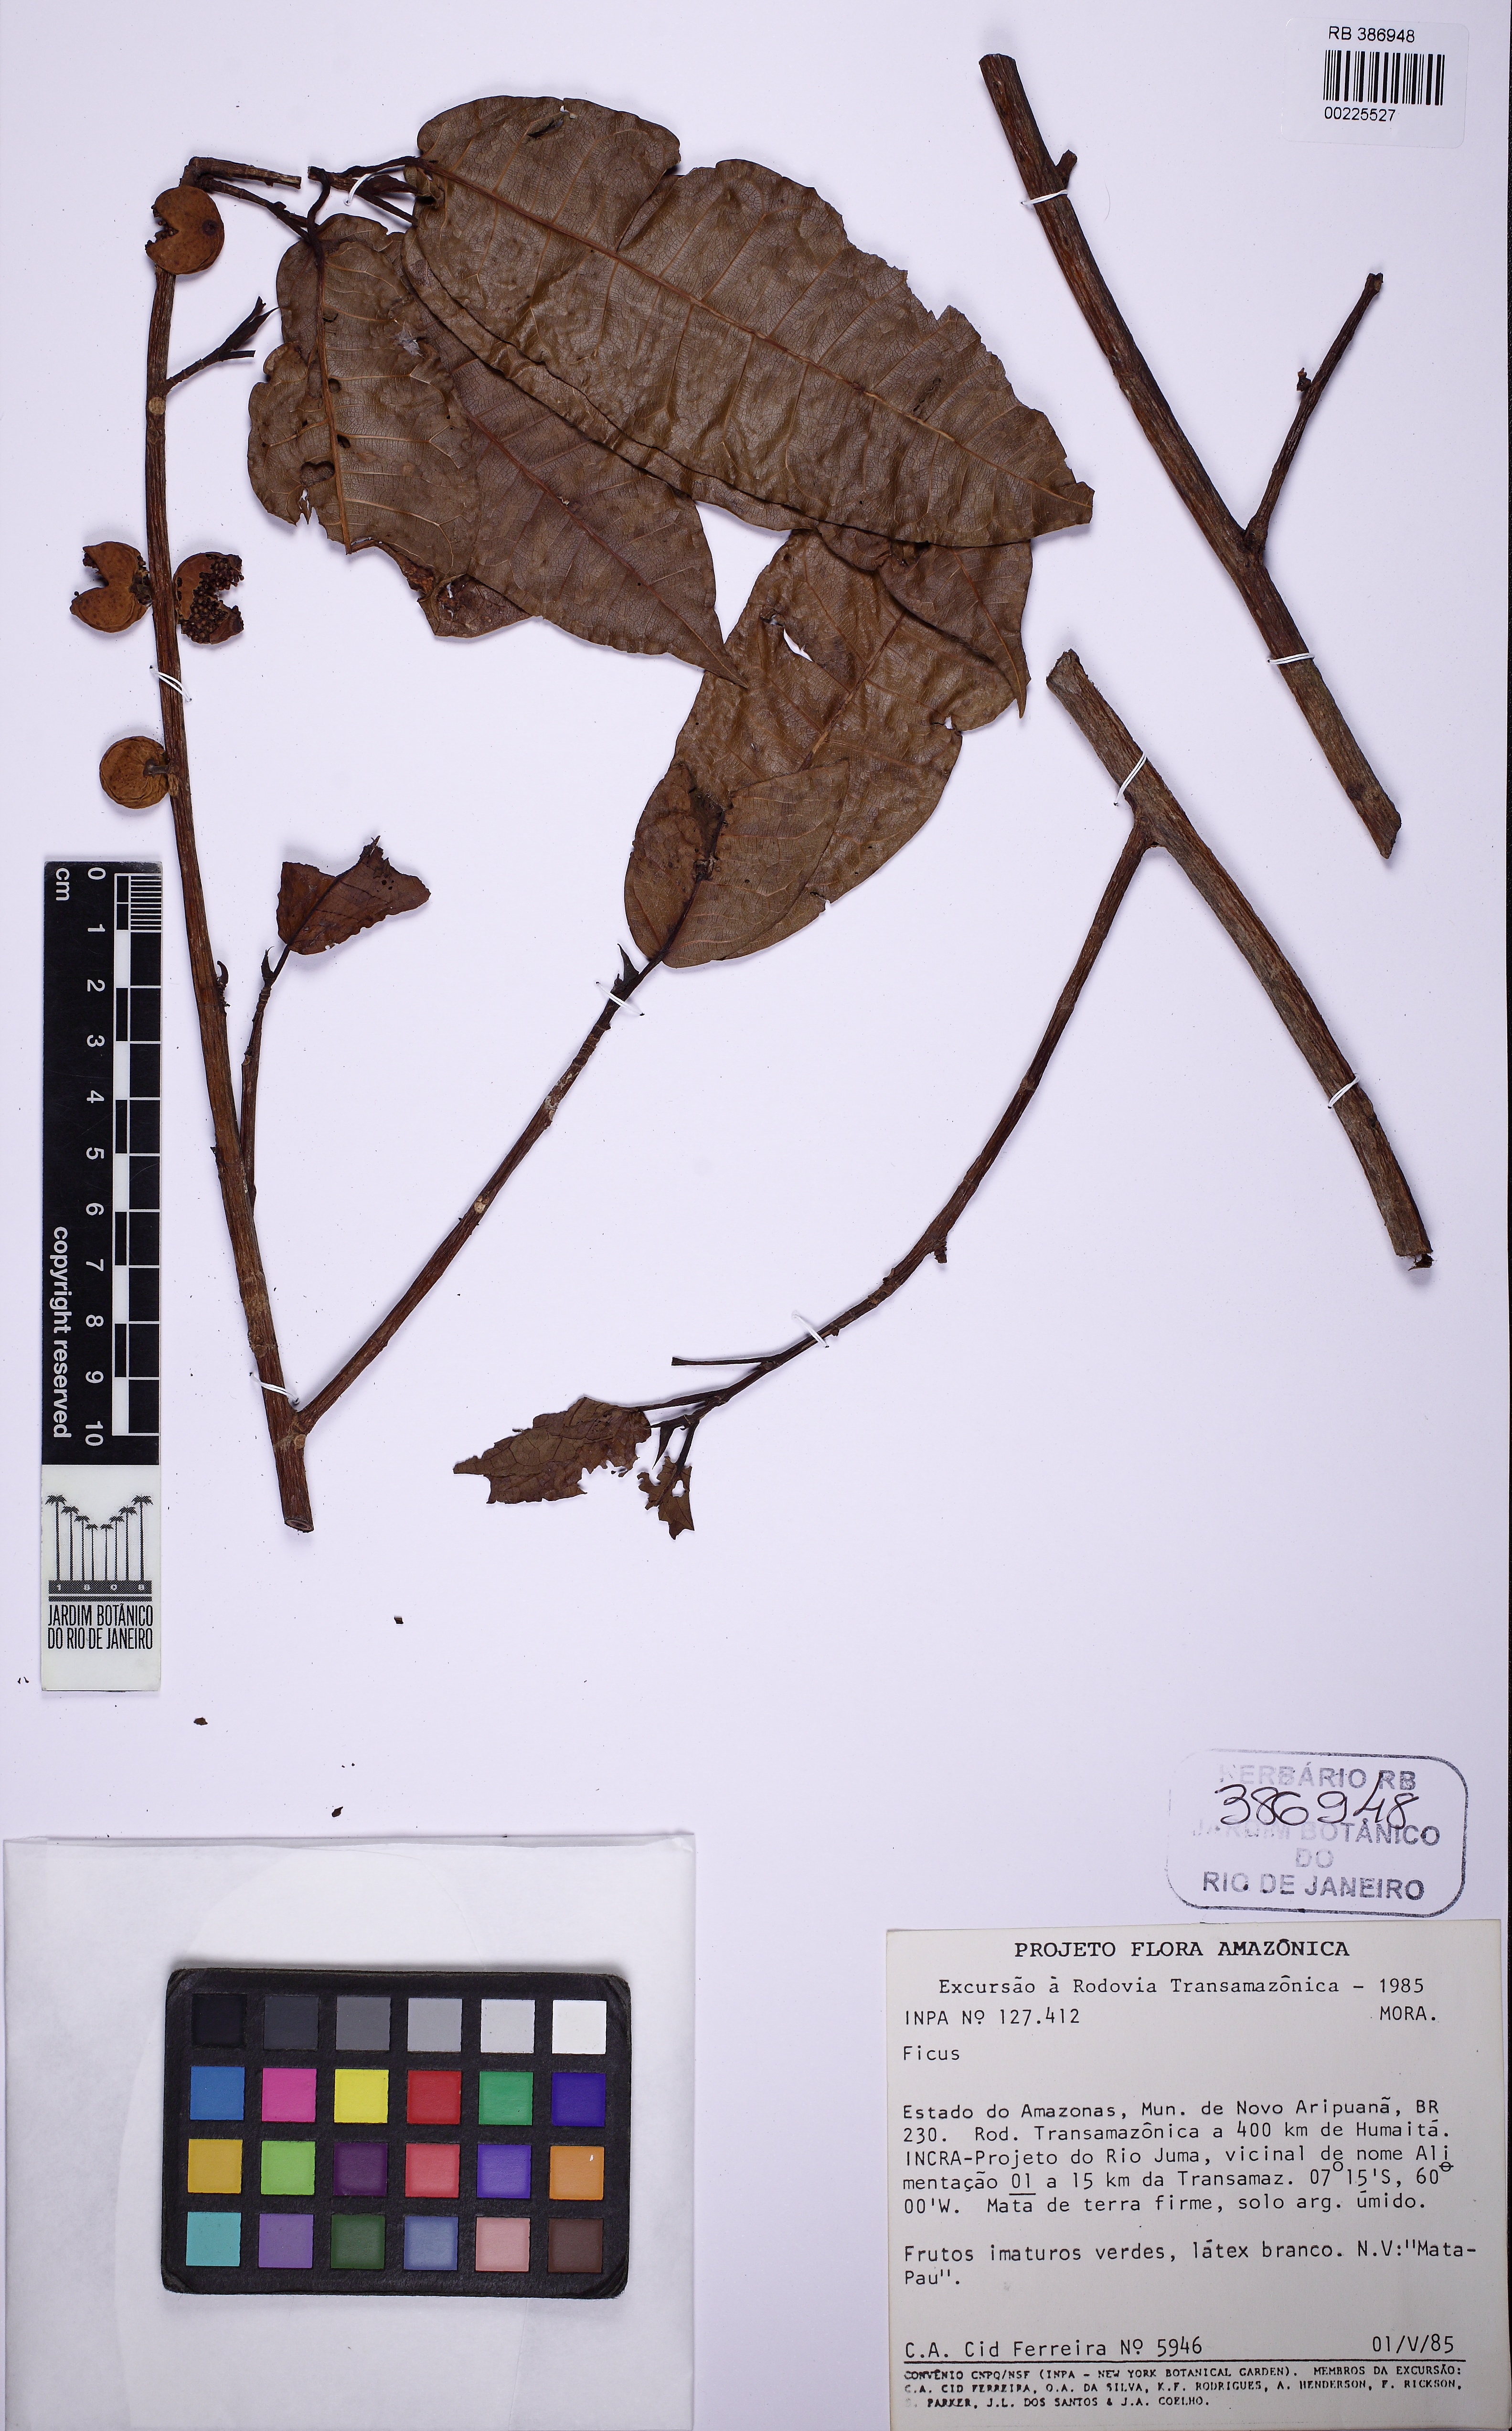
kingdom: Plantae
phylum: Tracheophyta
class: Magnoliopsida
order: Rosales
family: Moraceae
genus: Ficus
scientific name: Ficus krukovii
